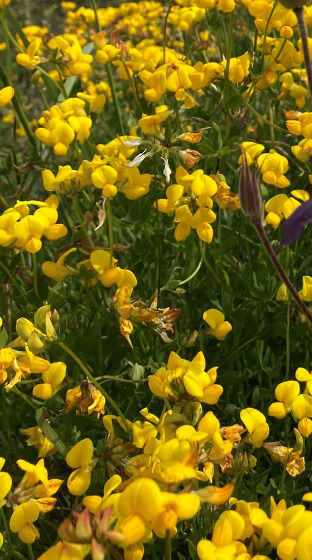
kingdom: Plantae
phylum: Tracheophyta
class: Magnoliopsida
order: Fabales
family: Fabaceae
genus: Lotus
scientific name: Lotus corniculatus
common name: Almindelig kællingetand
